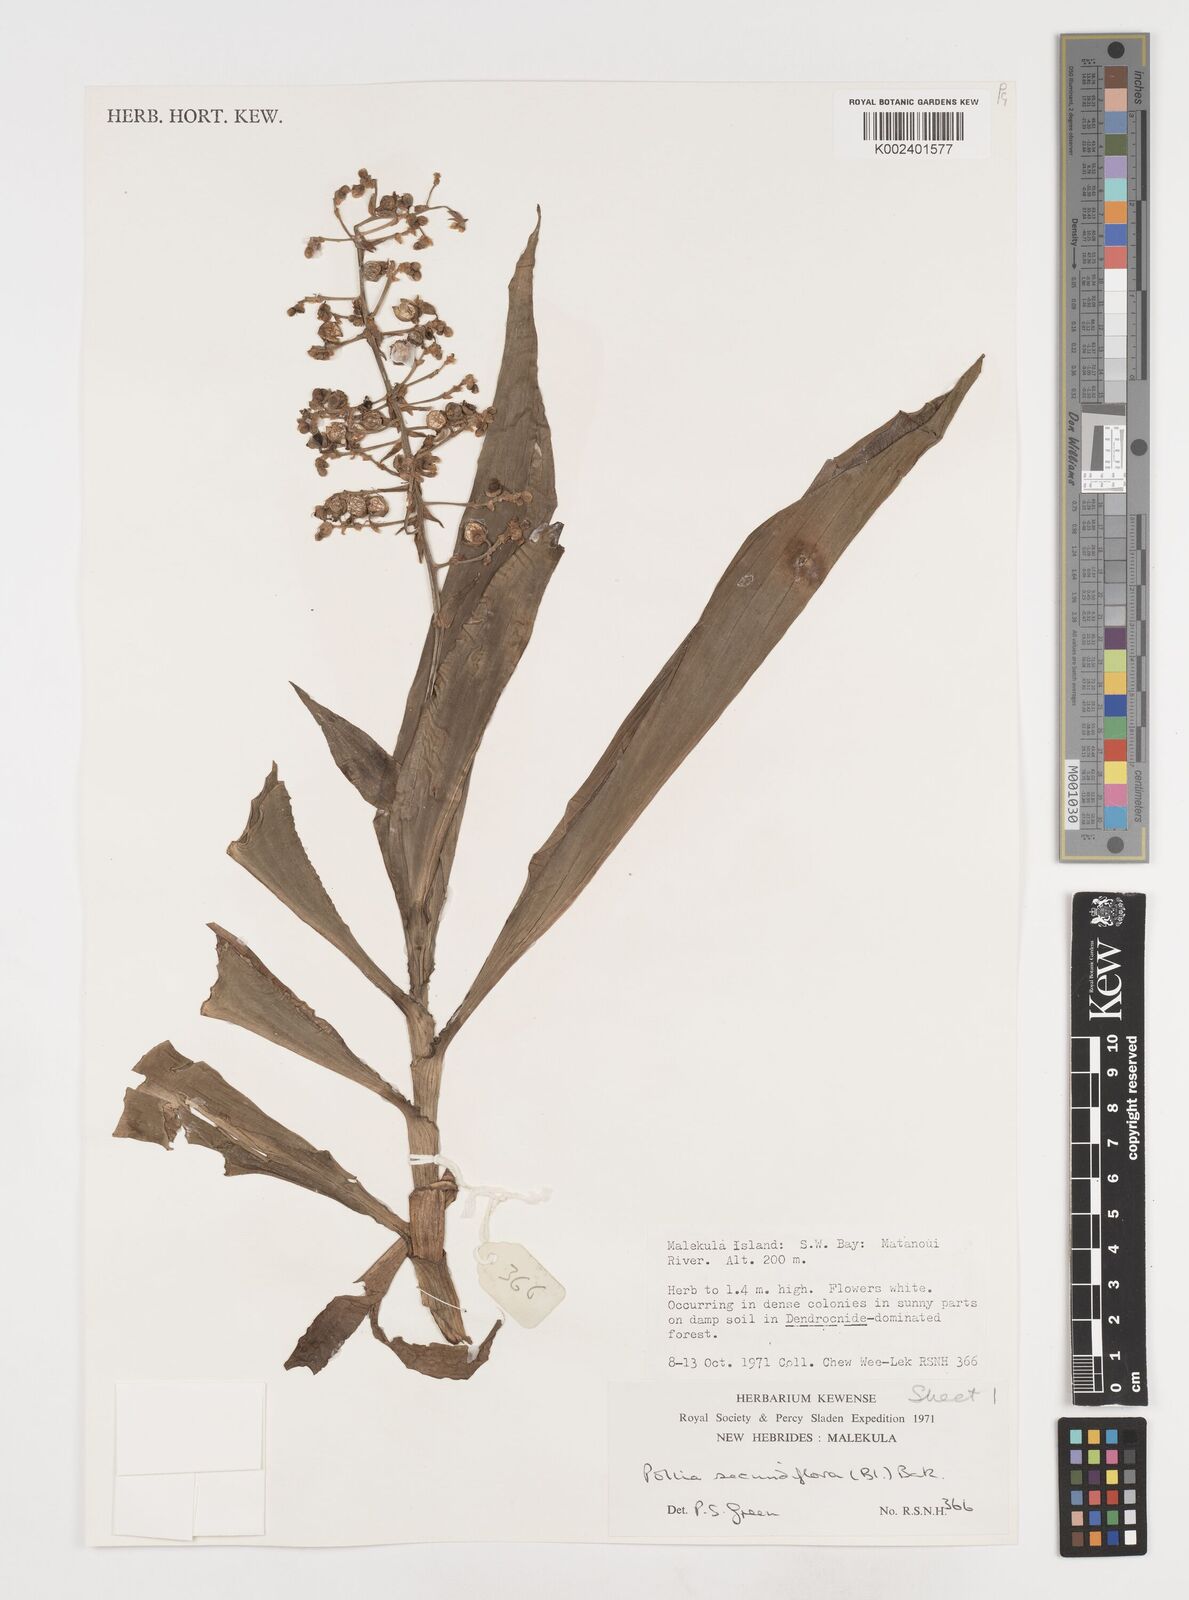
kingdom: Plantae
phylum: Tracheophyta
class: Liliopsida
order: Commelinales
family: Commelinaceae
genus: Pollia
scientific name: Pollia secundiflora
